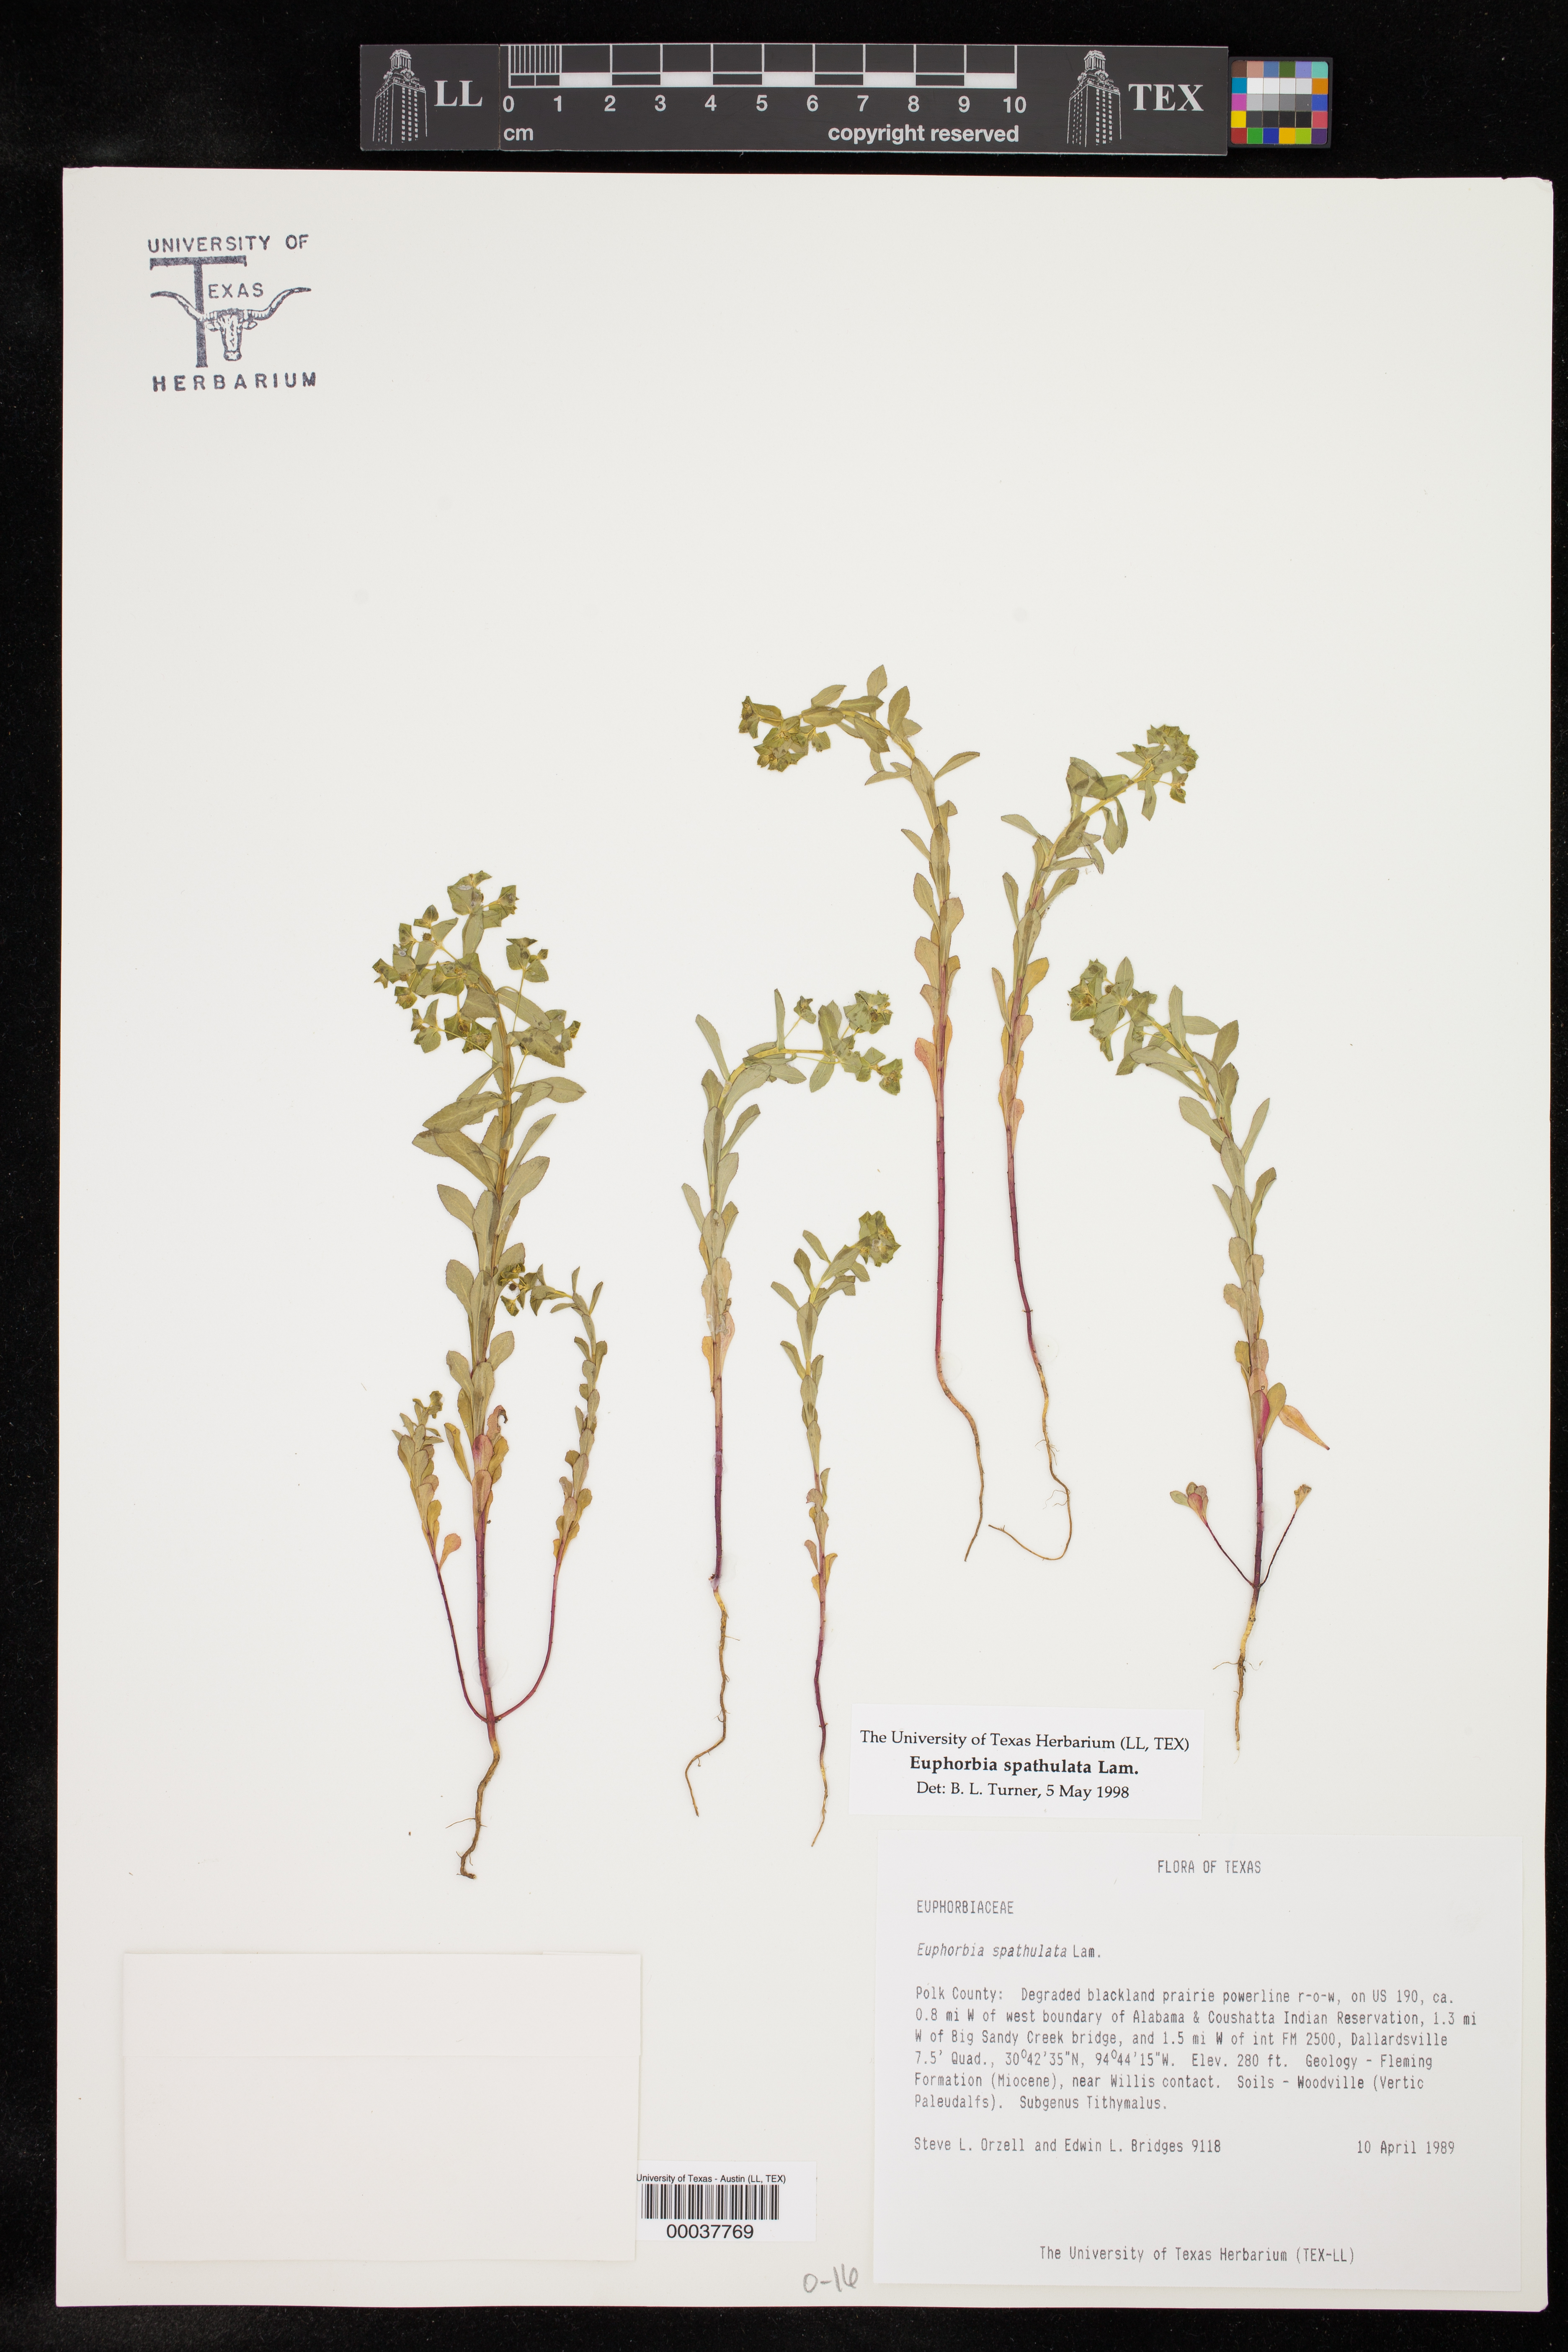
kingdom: Plantae
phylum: Tracheophyta
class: Magnoliopsida
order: Malpighiales
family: Euphorbiaceae
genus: Euphorbia
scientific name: Euphorbia spathulata
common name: Blunt spurge
